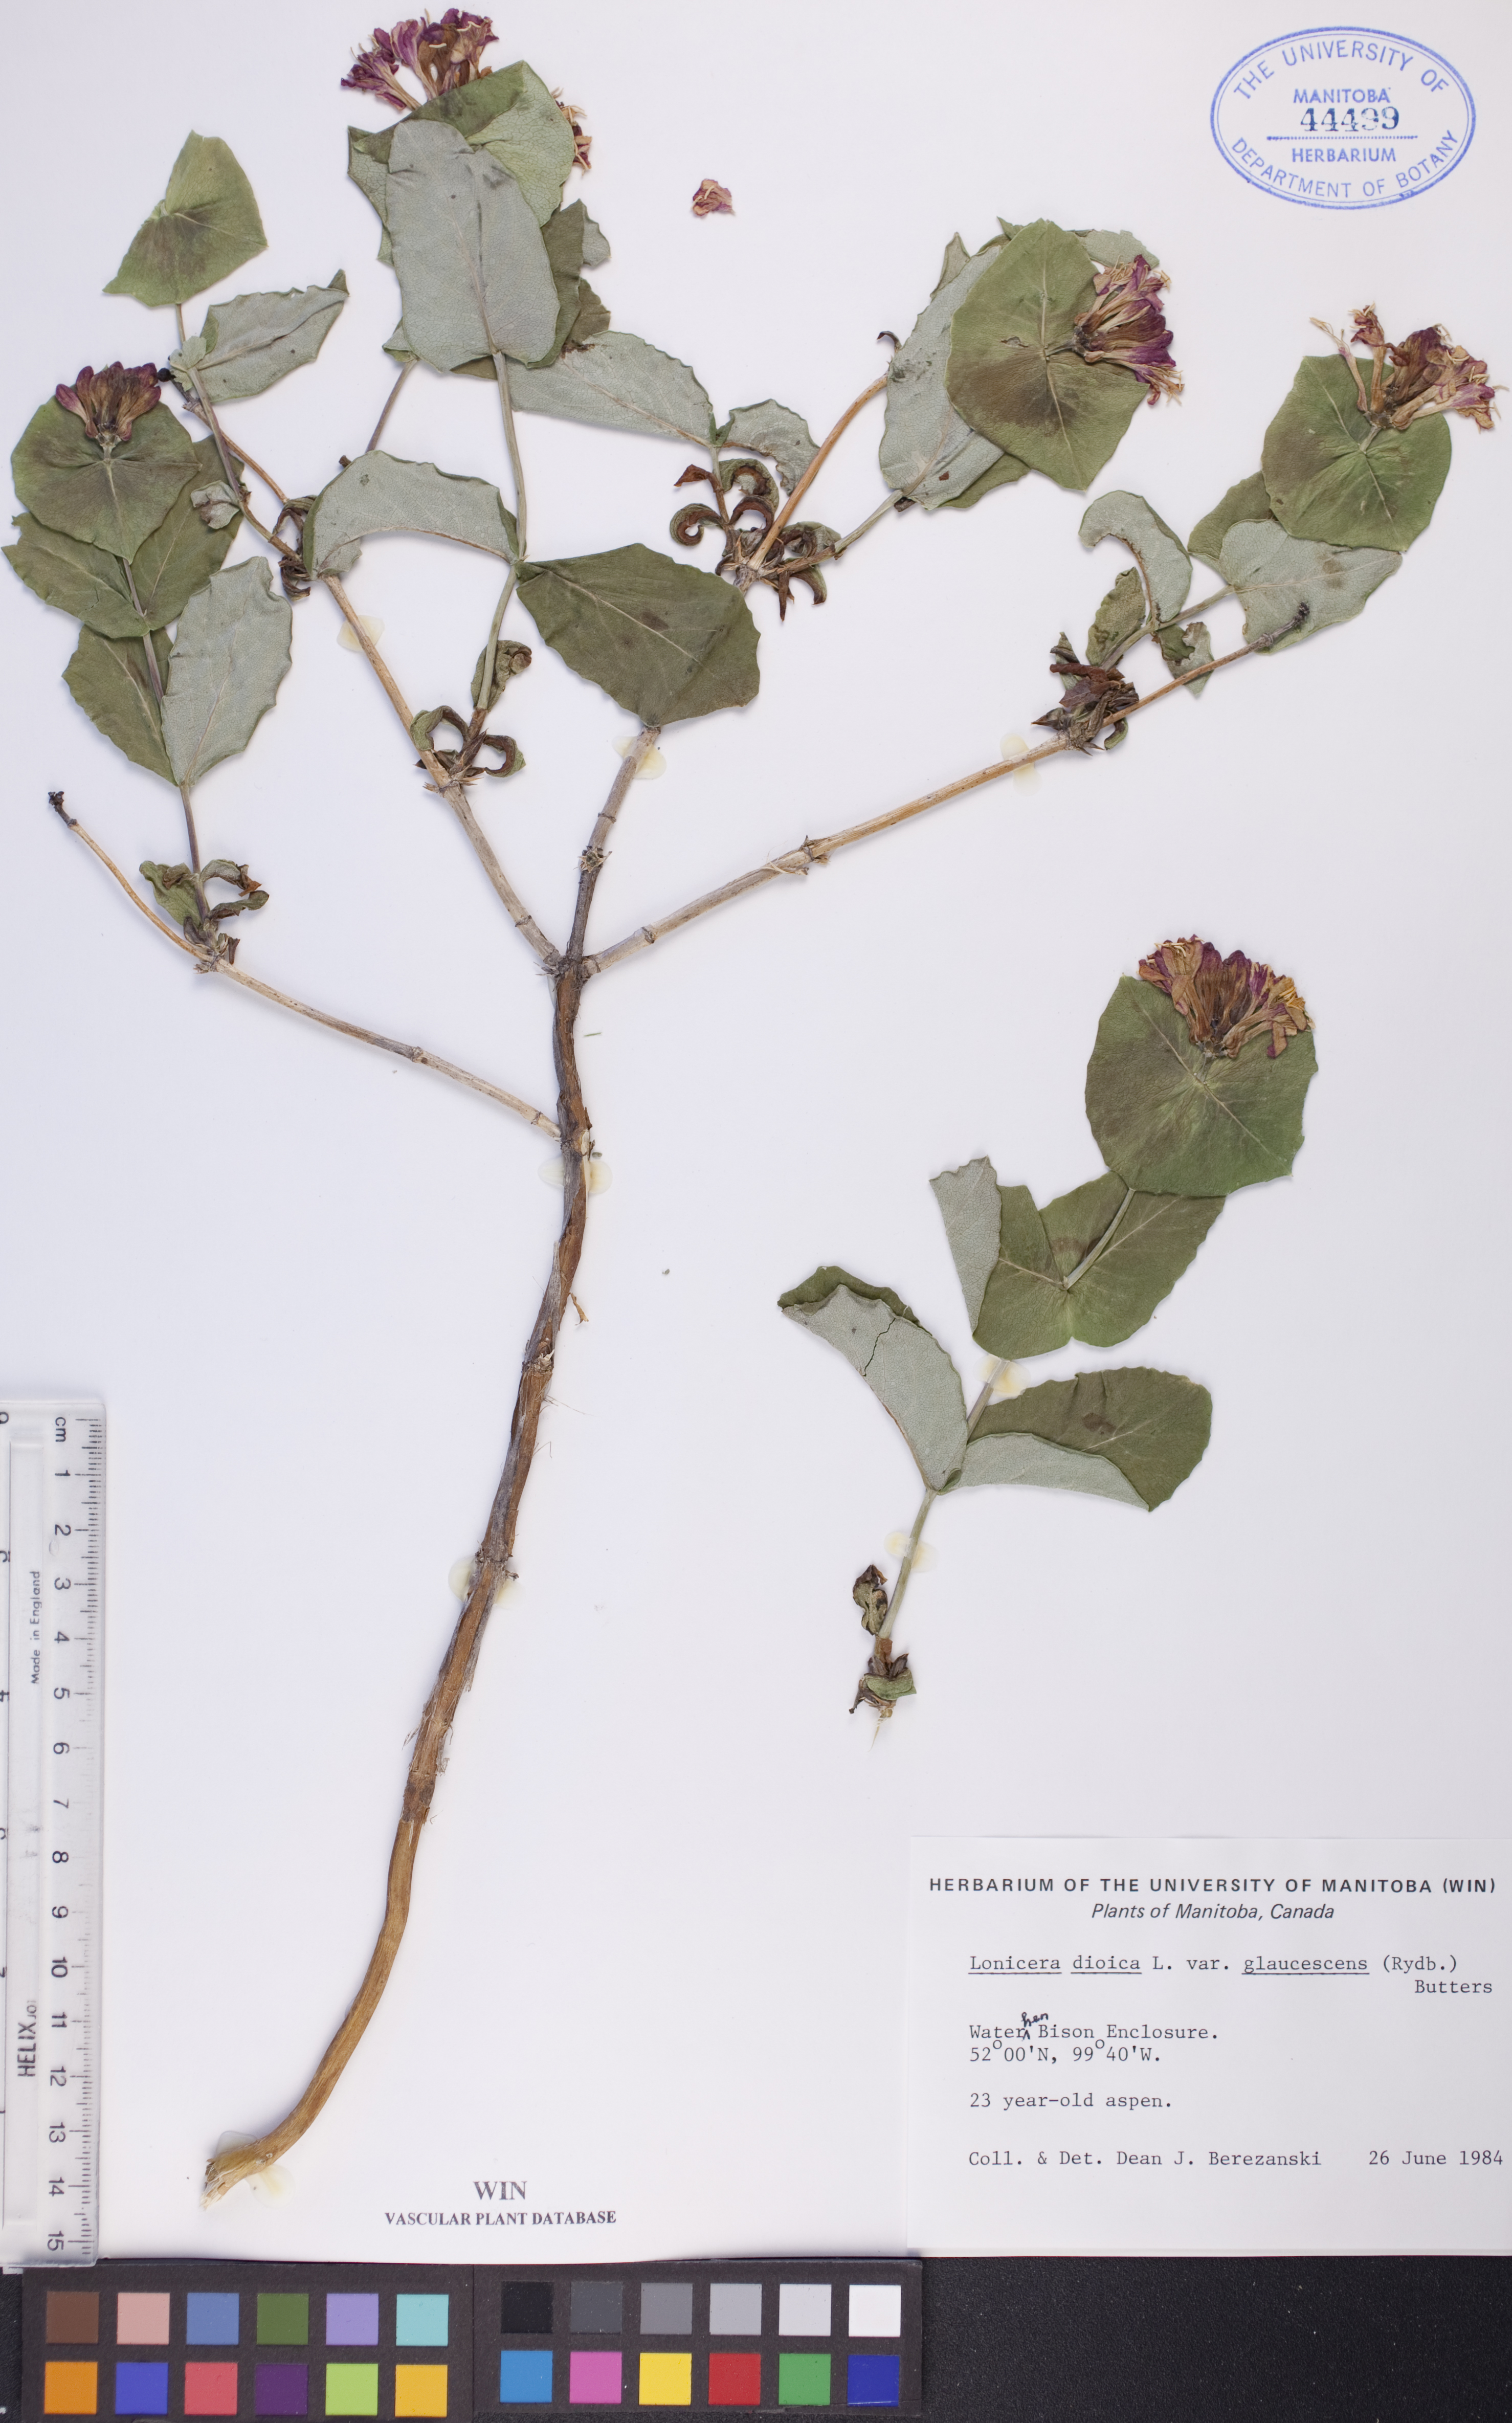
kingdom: Plantae
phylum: Tracheophyta
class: Magnoliopsida
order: Dipsacales
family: Caprifoliaceae
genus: Lonicera
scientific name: Lonicera dioica
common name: Limber honeysuckle
